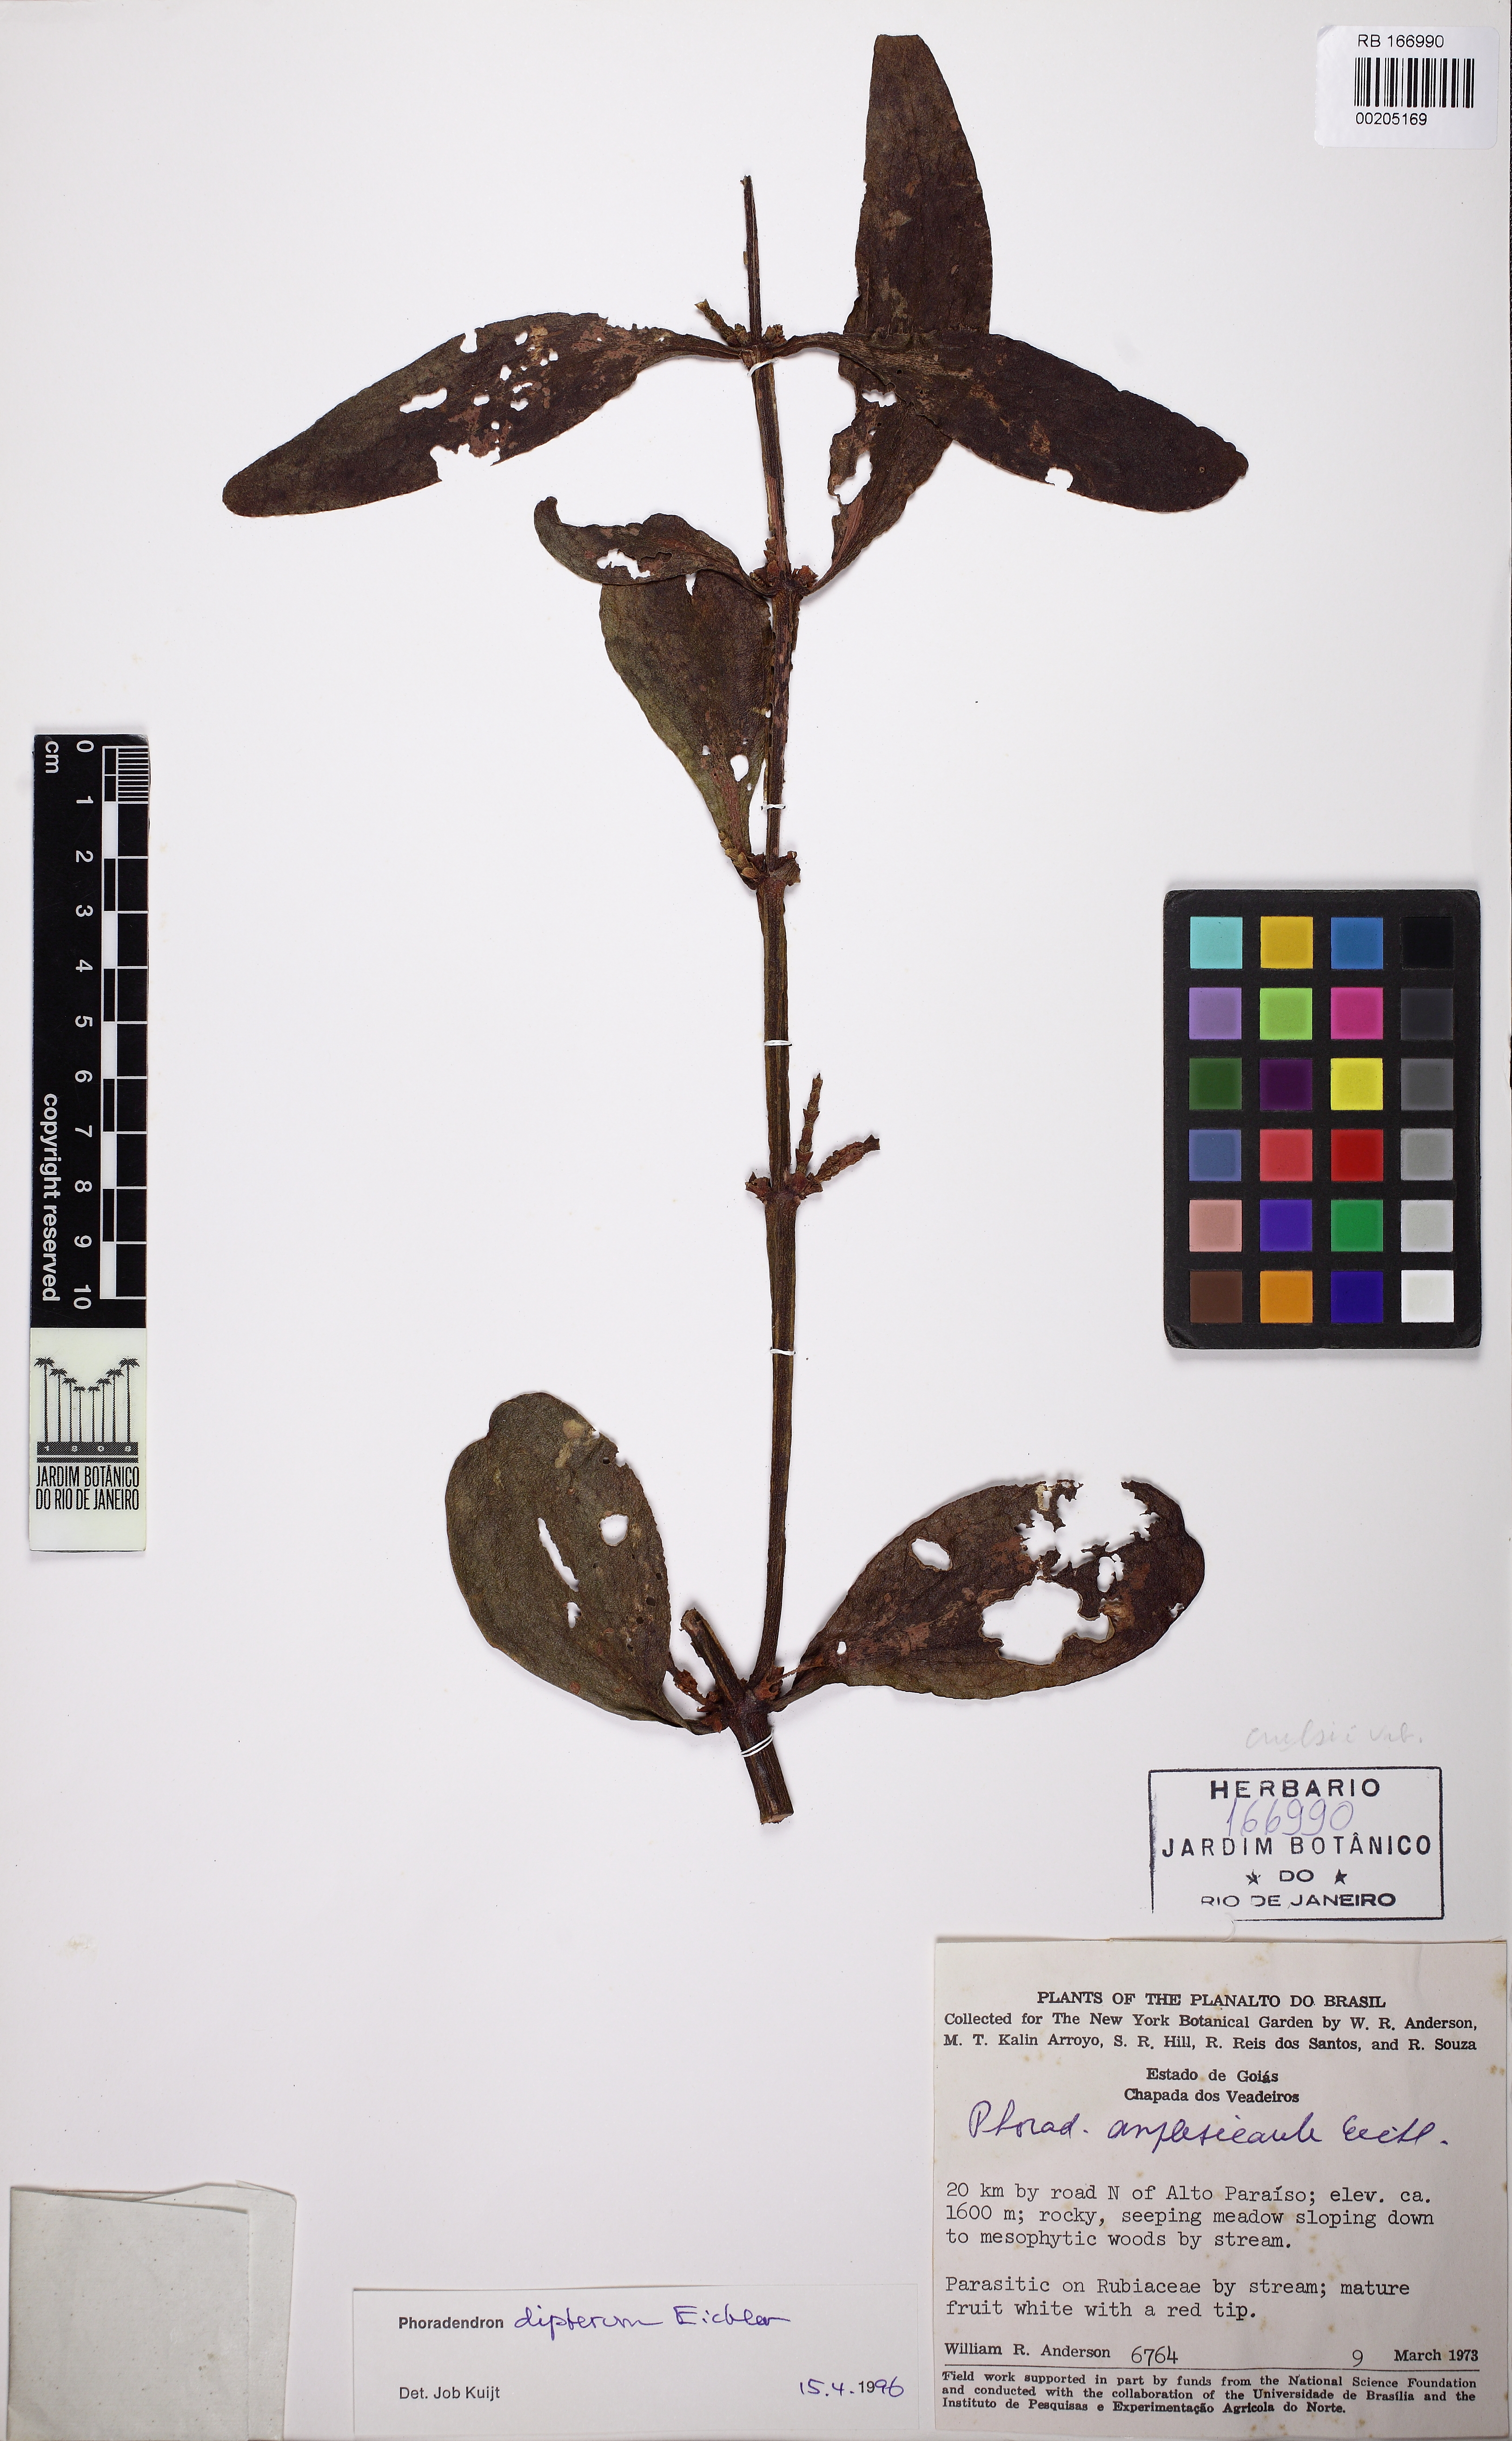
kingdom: Plantae
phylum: Tracheophyta
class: Magnoliopsida
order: Santalales
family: Viscaceae
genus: Phoradendron
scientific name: Phoradendron dipterum
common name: Fourpart mistletoe
